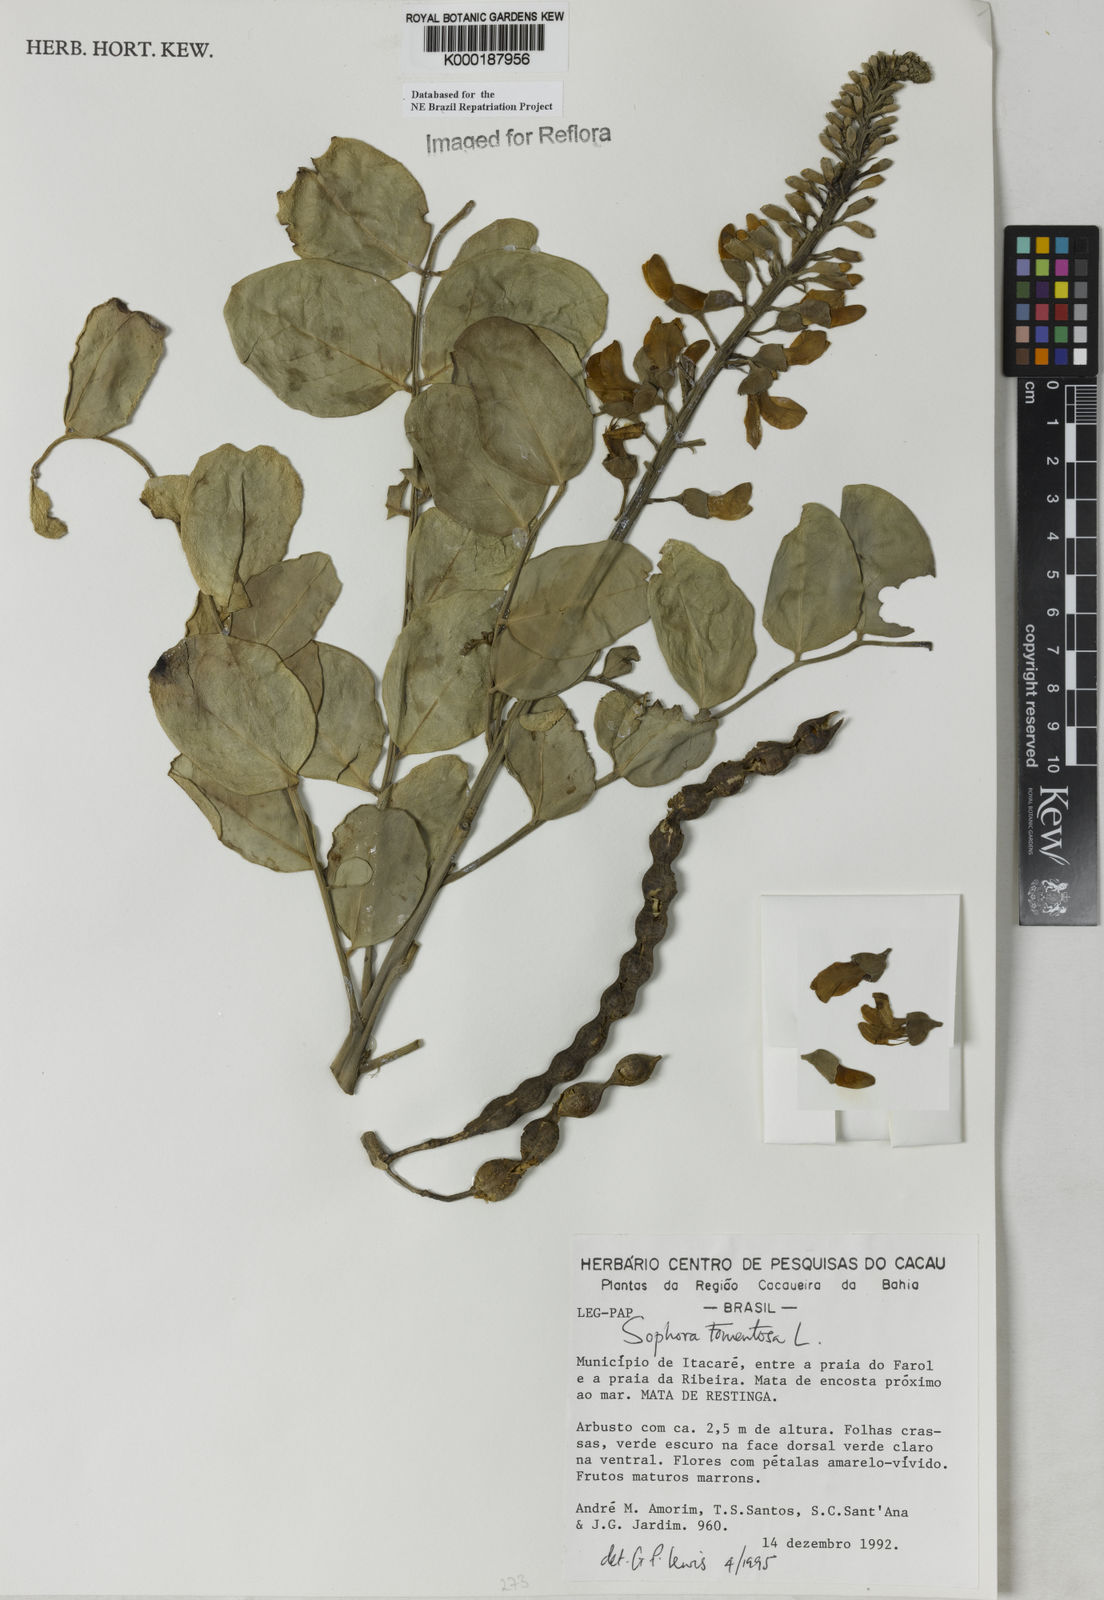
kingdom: Plantae
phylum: Tracheophyta
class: Magnoliopsida
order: Fabales
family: Fabaceae
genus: Sophora
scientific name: Sophora tomentosa
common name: Yellow necklacepod
